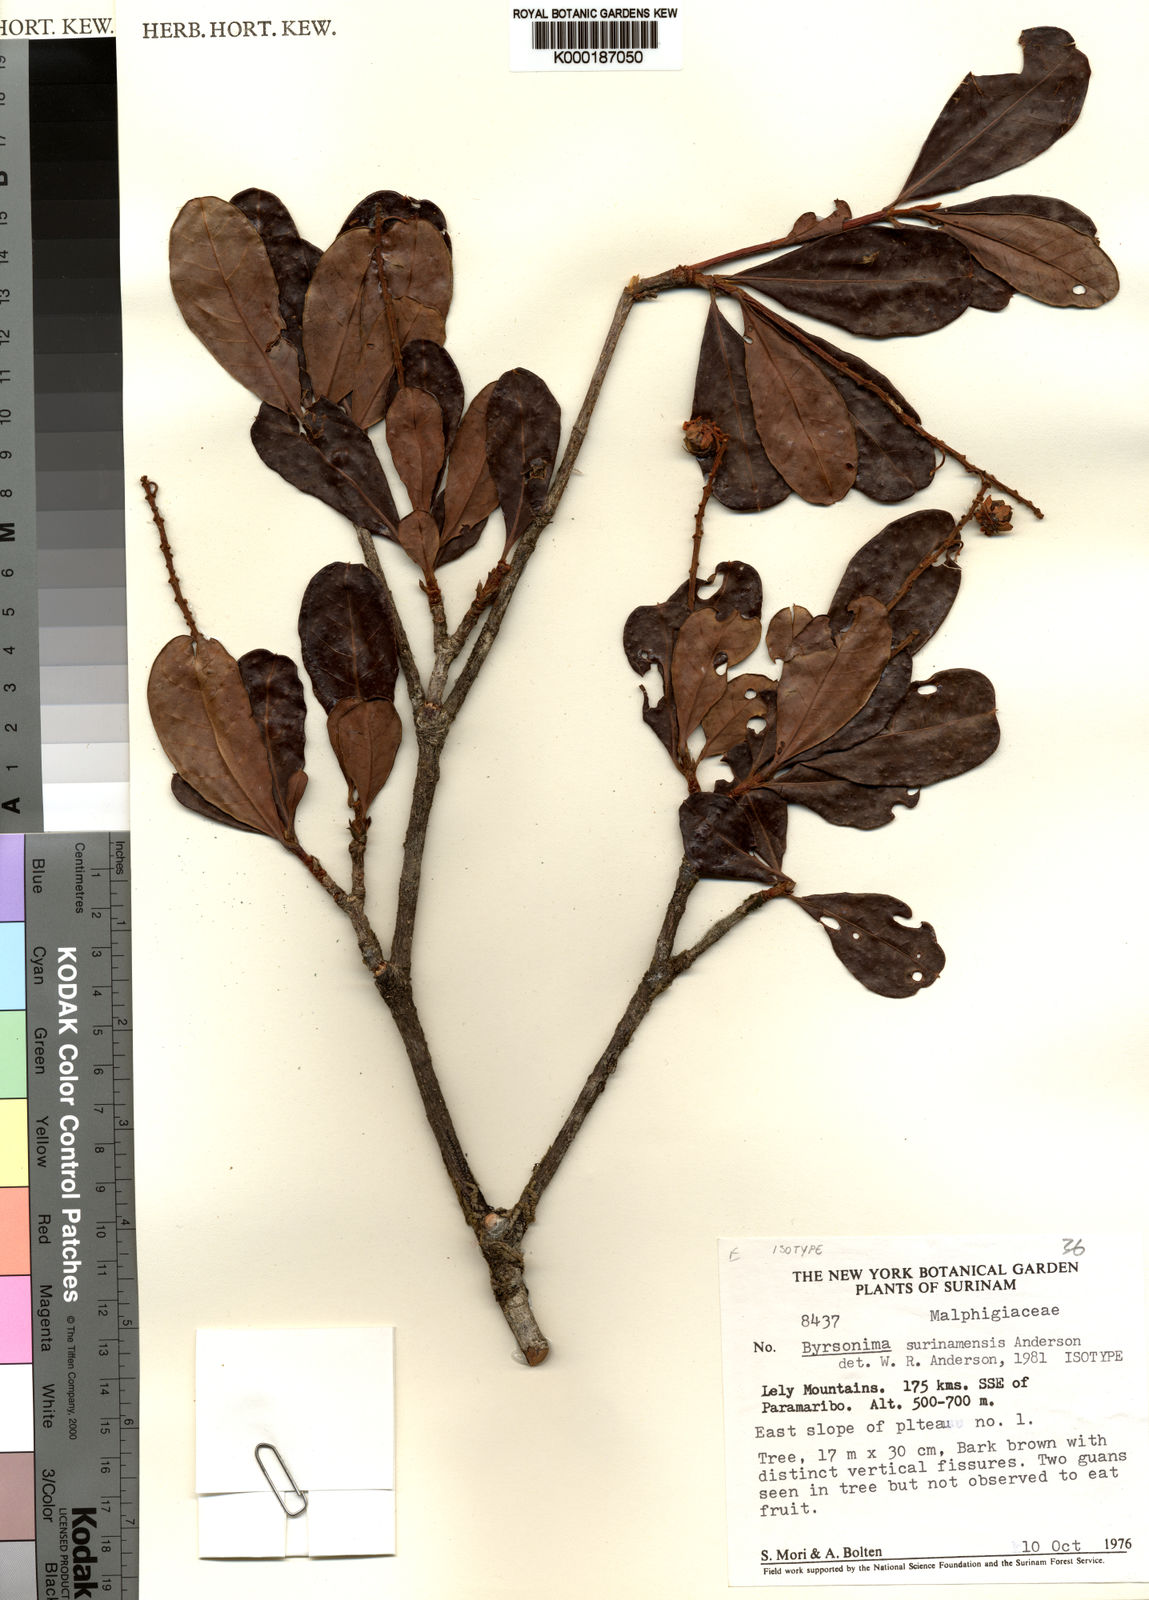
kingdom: Plantae
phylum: Tracheophyta
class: Magnoliopsida
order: Malpighiales
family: Malpighiaceae
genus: Byrsonima
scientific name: Byrsonima surinamensis
